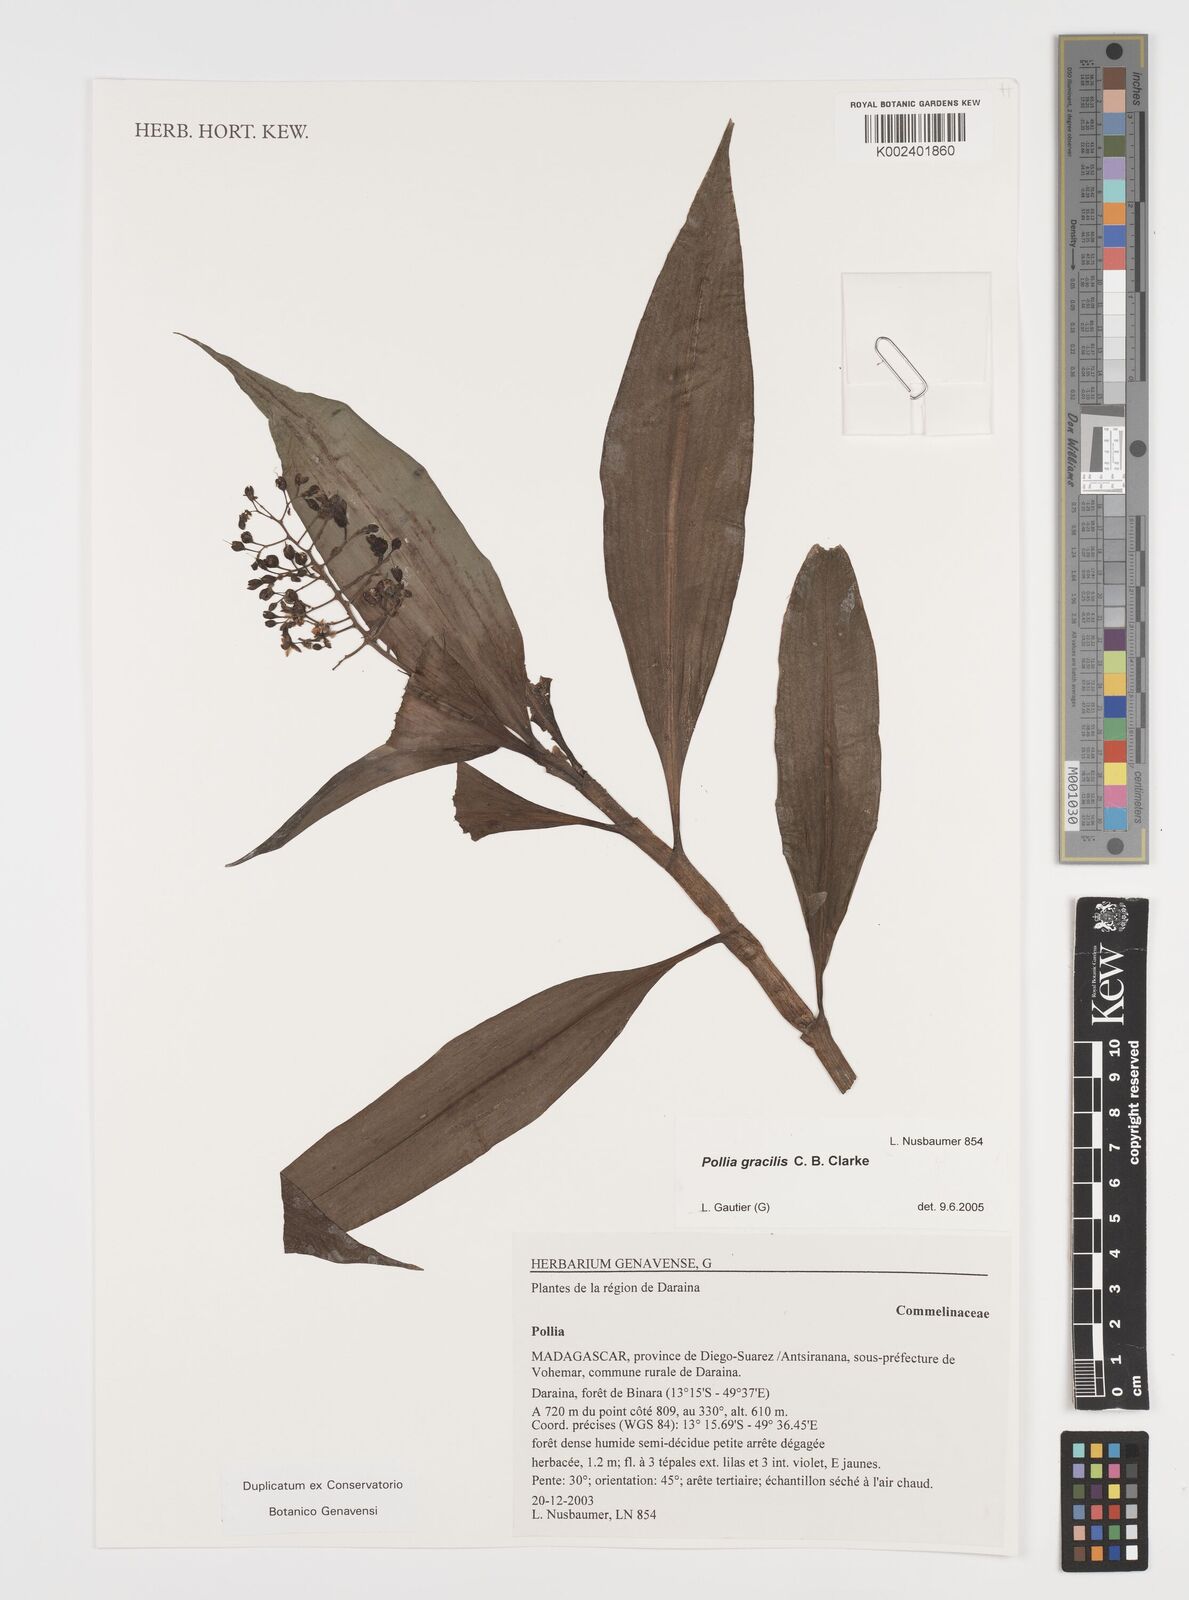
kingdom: Plantae
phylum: Tracheophyta
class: Liliopsida
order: Commelinales
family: Commelinaceae
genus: Pollia
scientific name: Pollia gracilis
